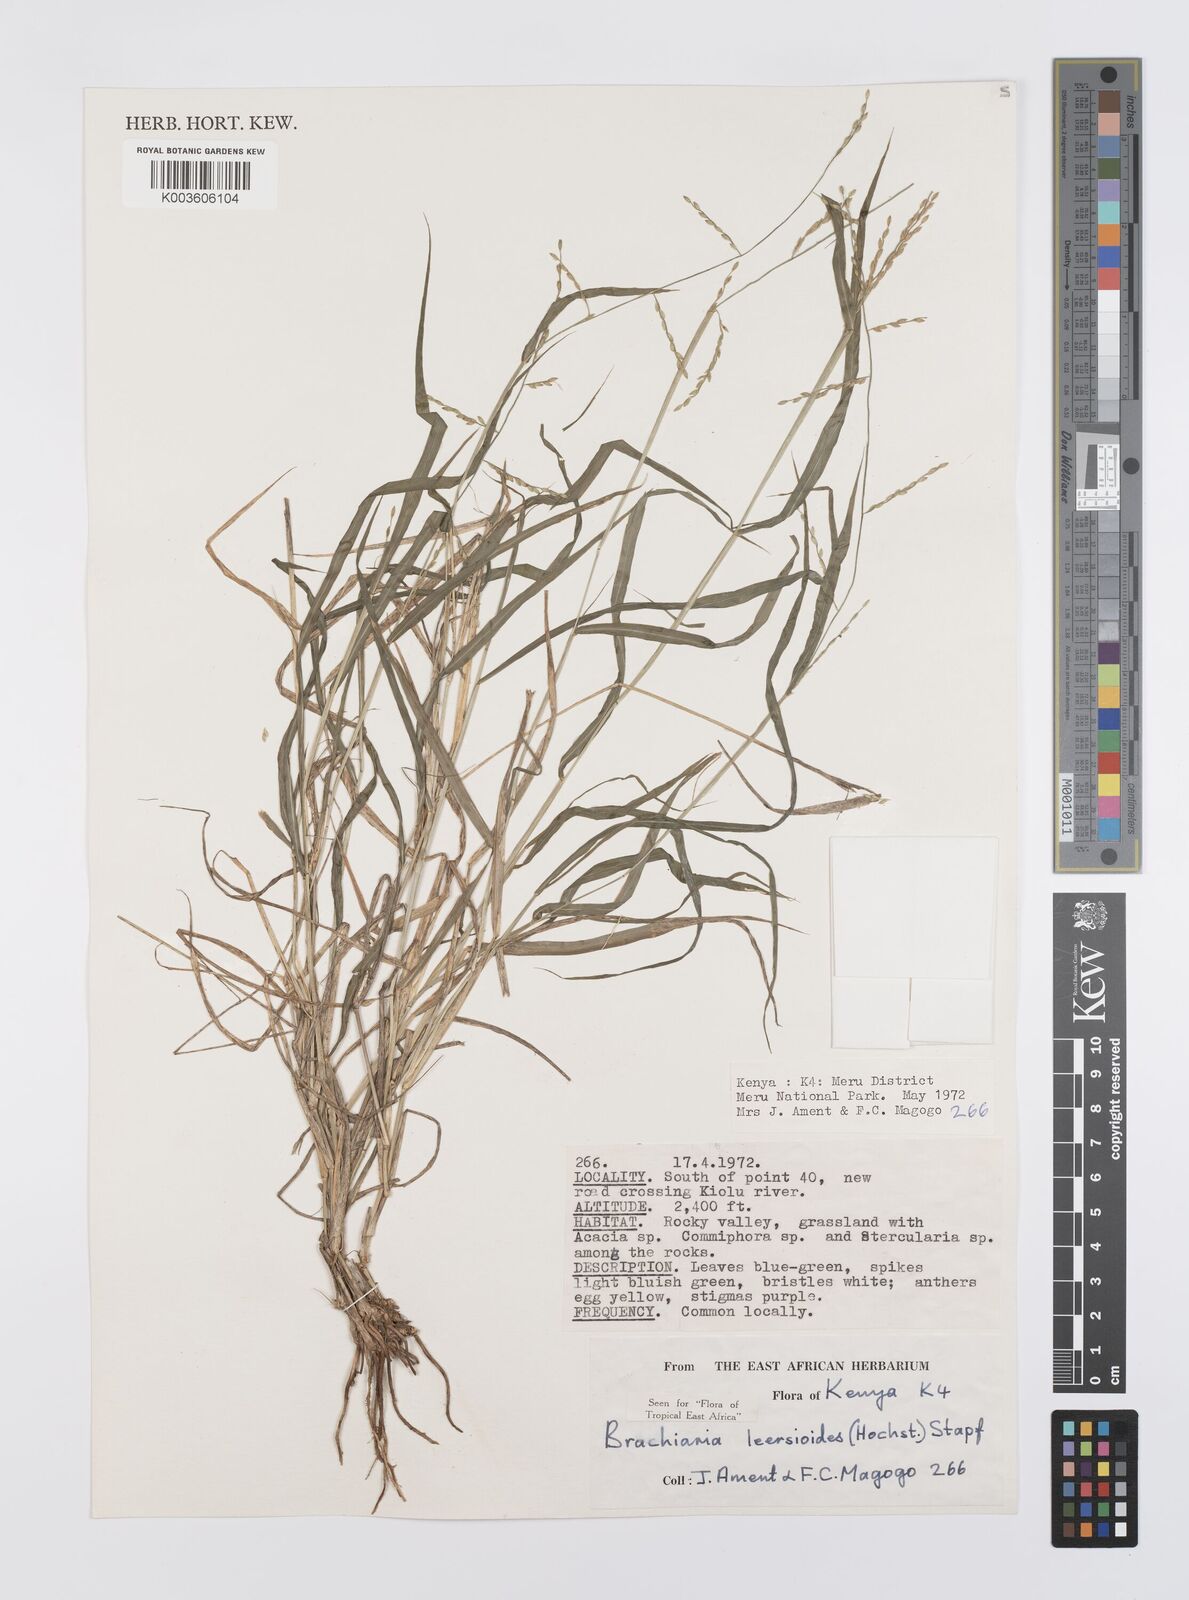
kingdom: Plantae
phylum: Tracheophyta
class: Liliopsida
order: Poales
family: Poaceae
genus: Urochloa
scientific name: Urochloa leersioides
